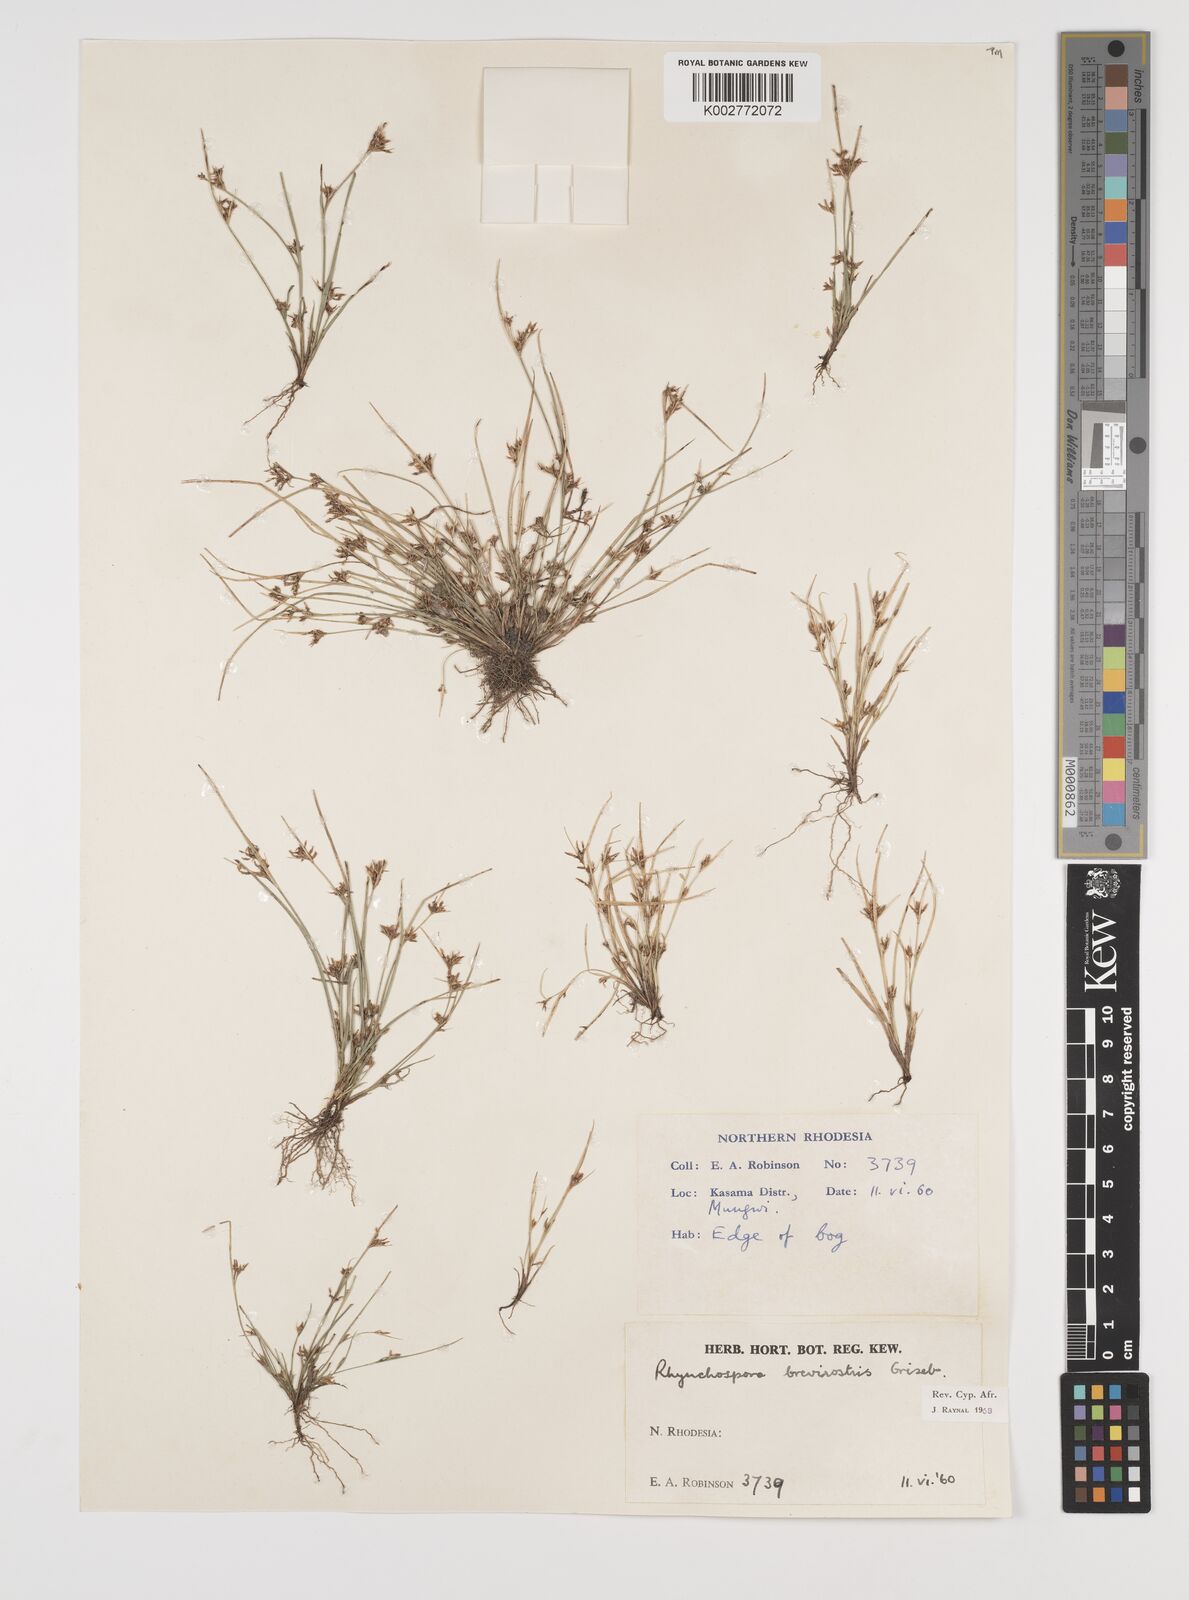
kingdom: Plantae
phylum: Tracheophyta
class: Liliopsida
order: Poales
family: Cyperaceae
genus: Rhynchospora
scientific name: Rhynchospora brevirostris
